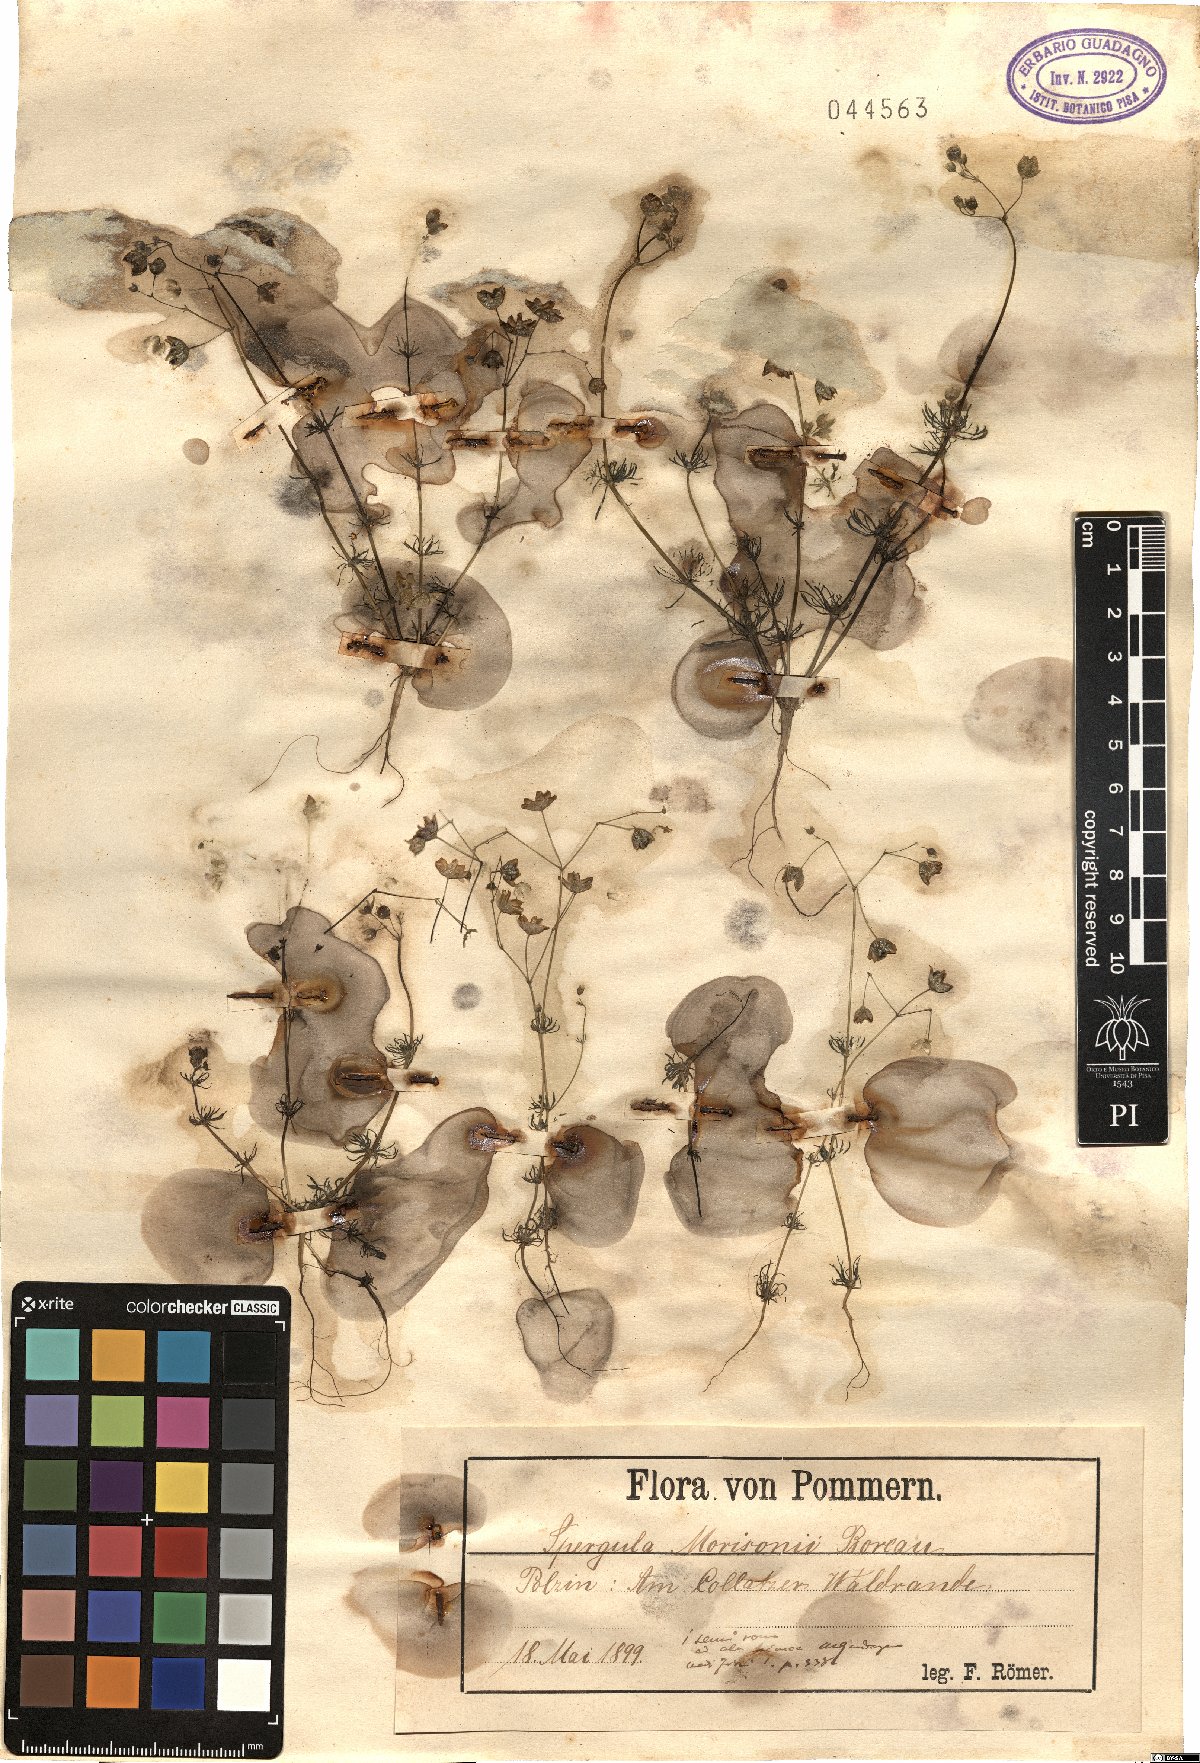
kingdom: Plantae
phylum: Tracheophyta
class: Magnoliopsida
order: Caryophyllales
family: Caryophyllaceae
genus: Spergula
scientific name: Spergula morisonii
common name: Pearlwort spurrey
